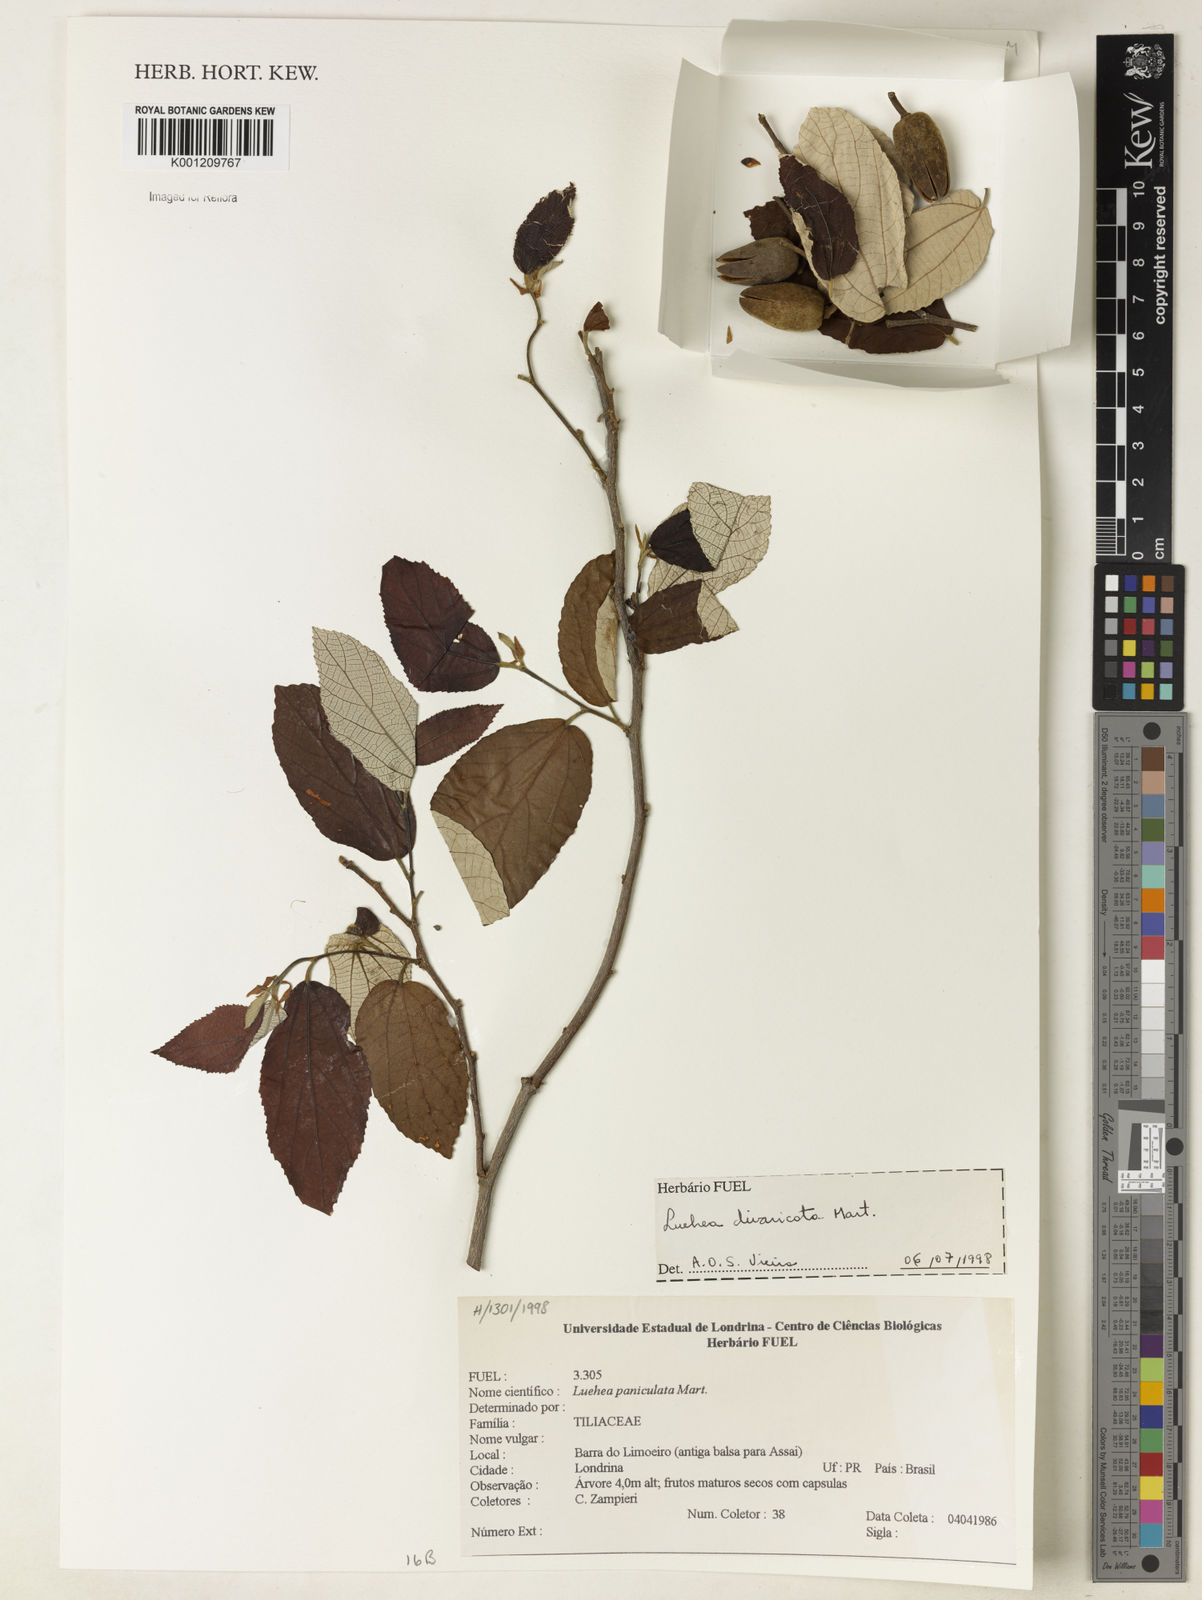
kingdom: Plantae
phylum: Tracheophyta
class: Magnoliopsida
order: Malvales
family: Malvaceae
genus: Luehea
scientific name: Luehea divaricata
